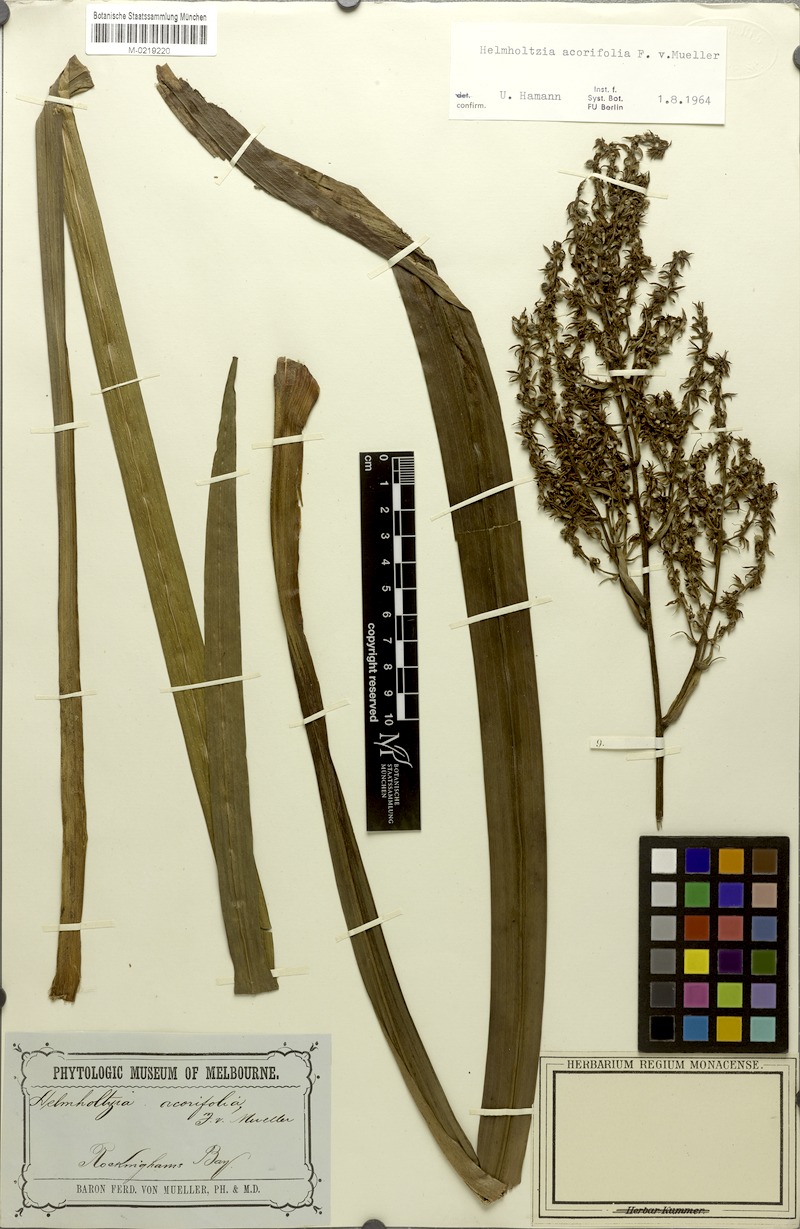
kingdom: Plantae
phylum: Tracheophyta
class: Liliopsida
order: Commelinales
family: Philydraceae
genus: Helmholtzia
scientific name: Helmholtzia acorifolia
